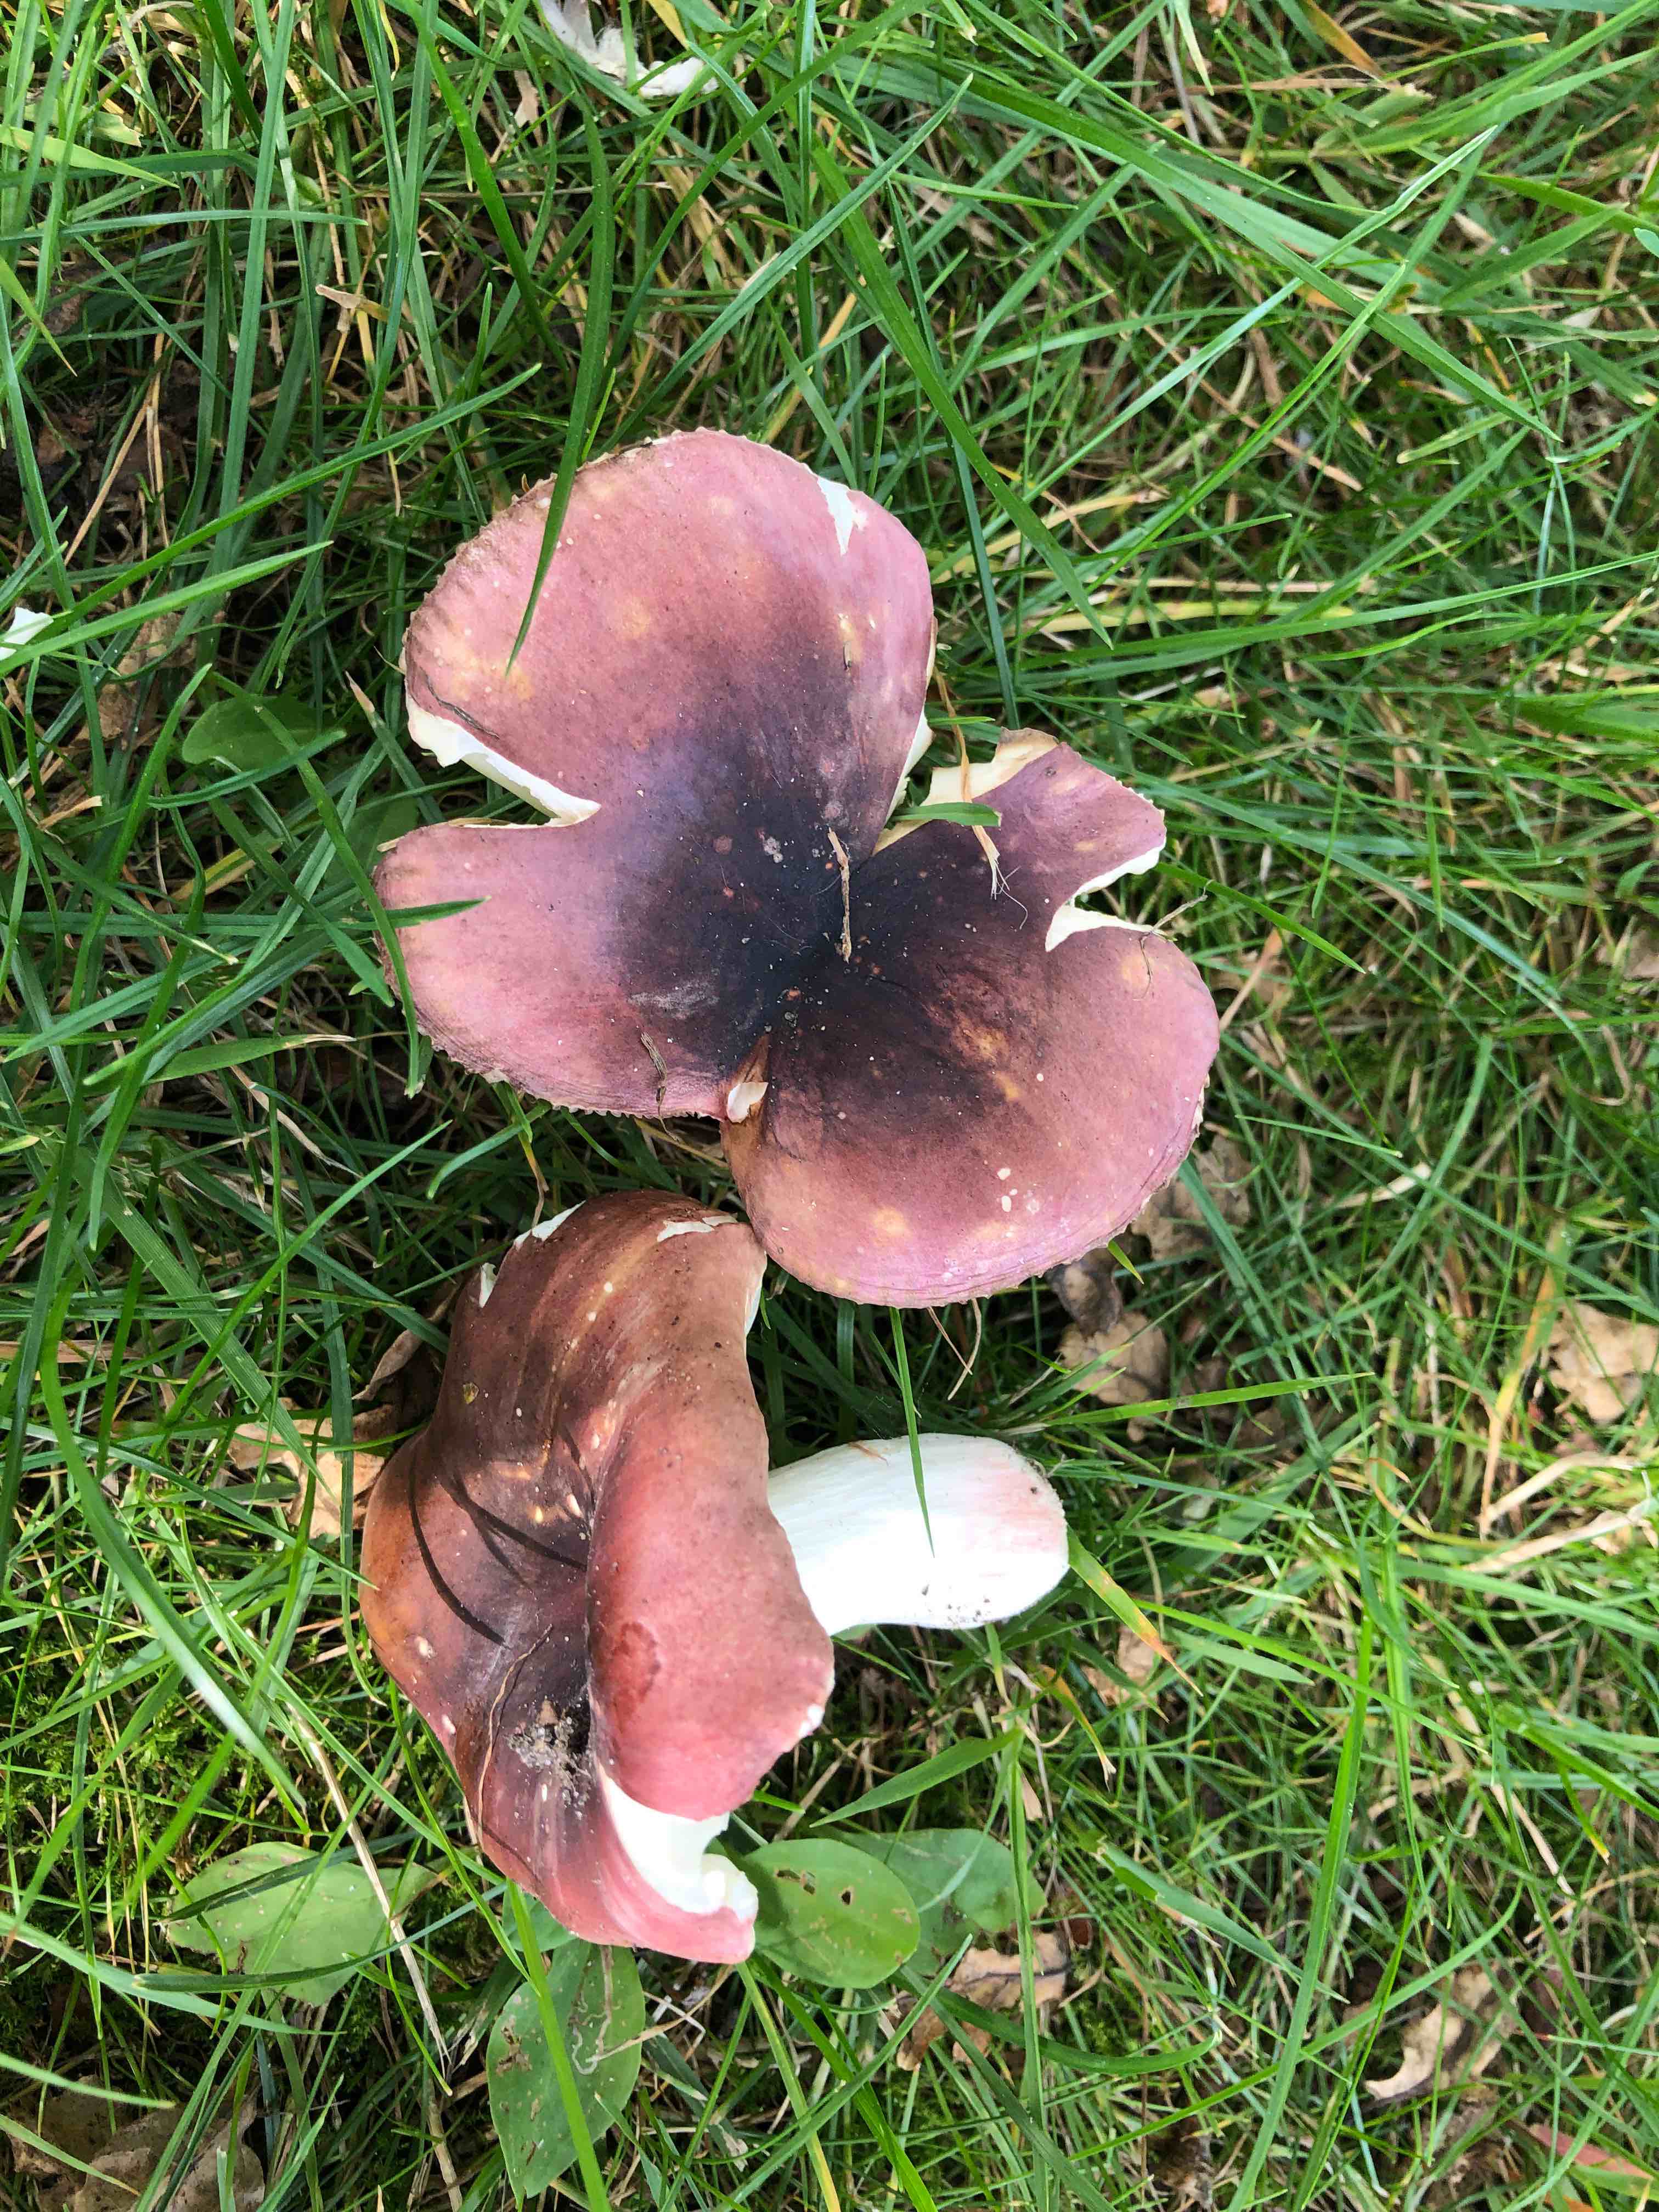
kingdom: Fungi
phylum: Basidiomycota
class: Agaricomycetes
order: Russulales
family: Russulaceae
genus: Russula
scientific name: Russula graveolens
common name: bugtet skørhat
